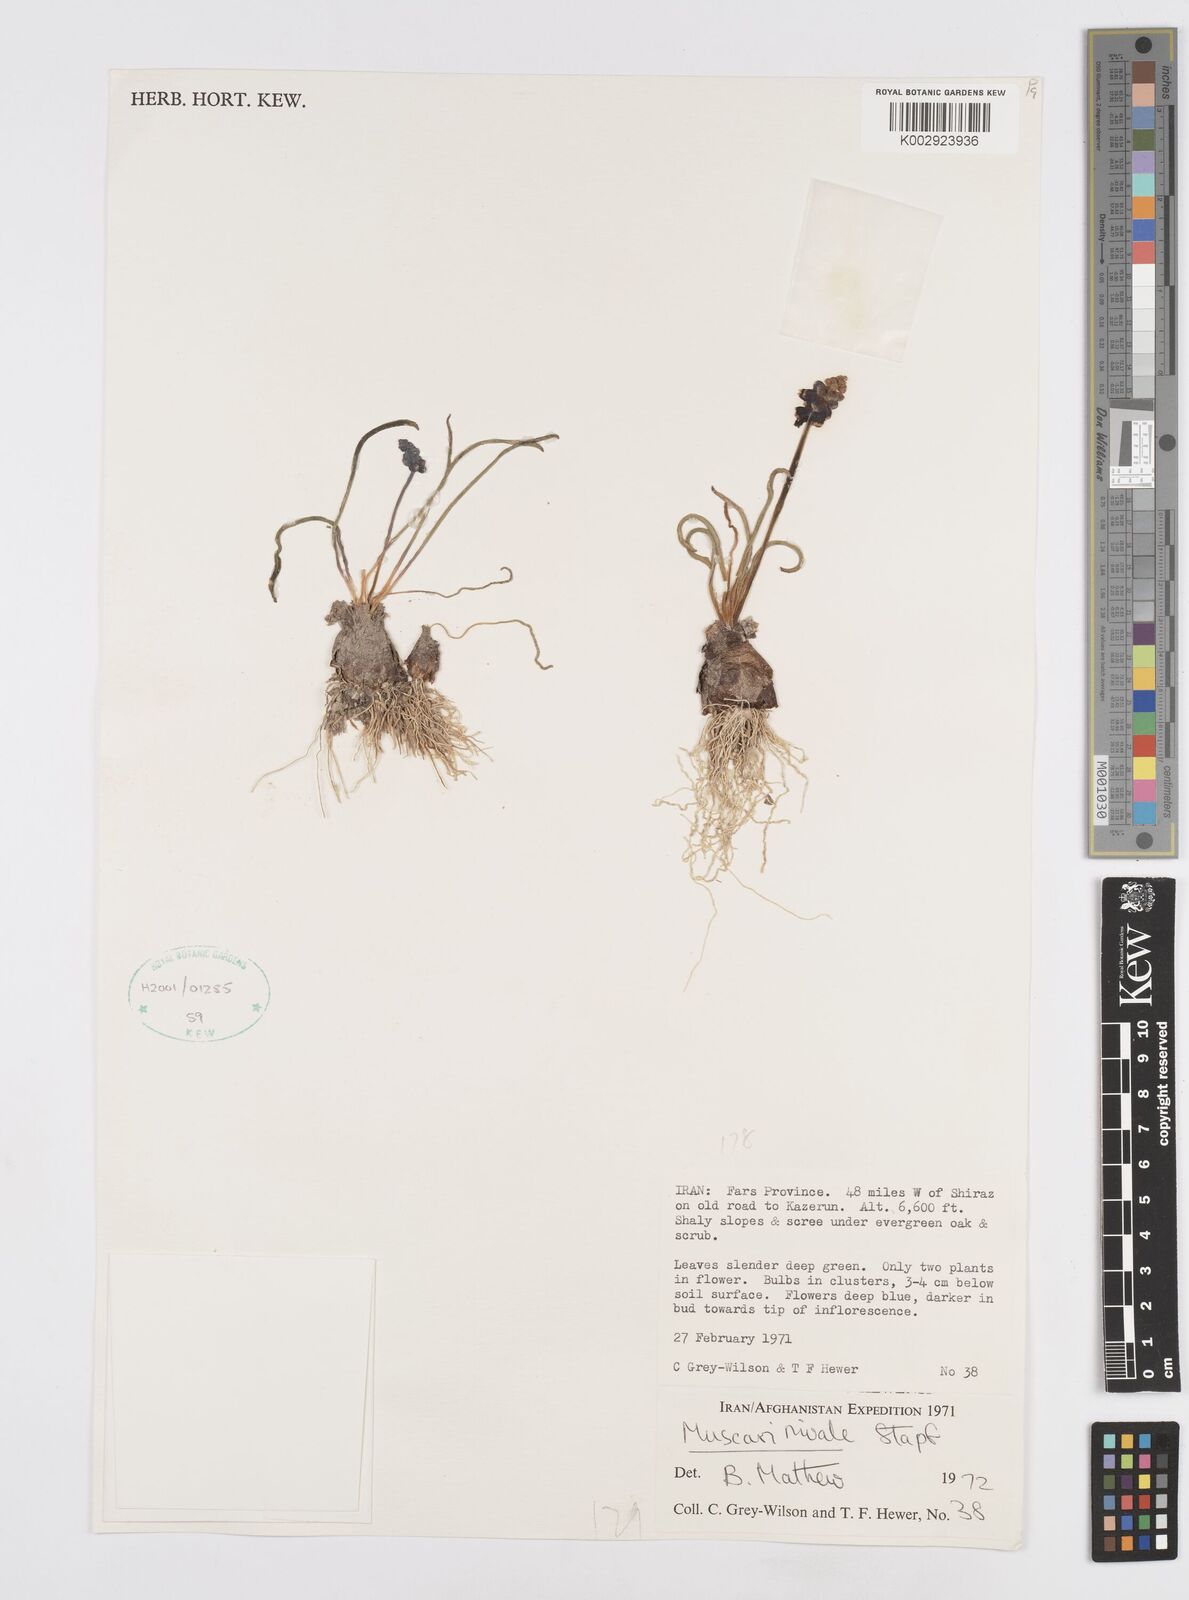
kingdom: Plantae
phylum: Tracheophyta
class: Liliopsida
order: Asparagales
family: Asparagaceae
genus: Muscari
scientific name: Muscari neglectum
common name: Grape-hyacinth
